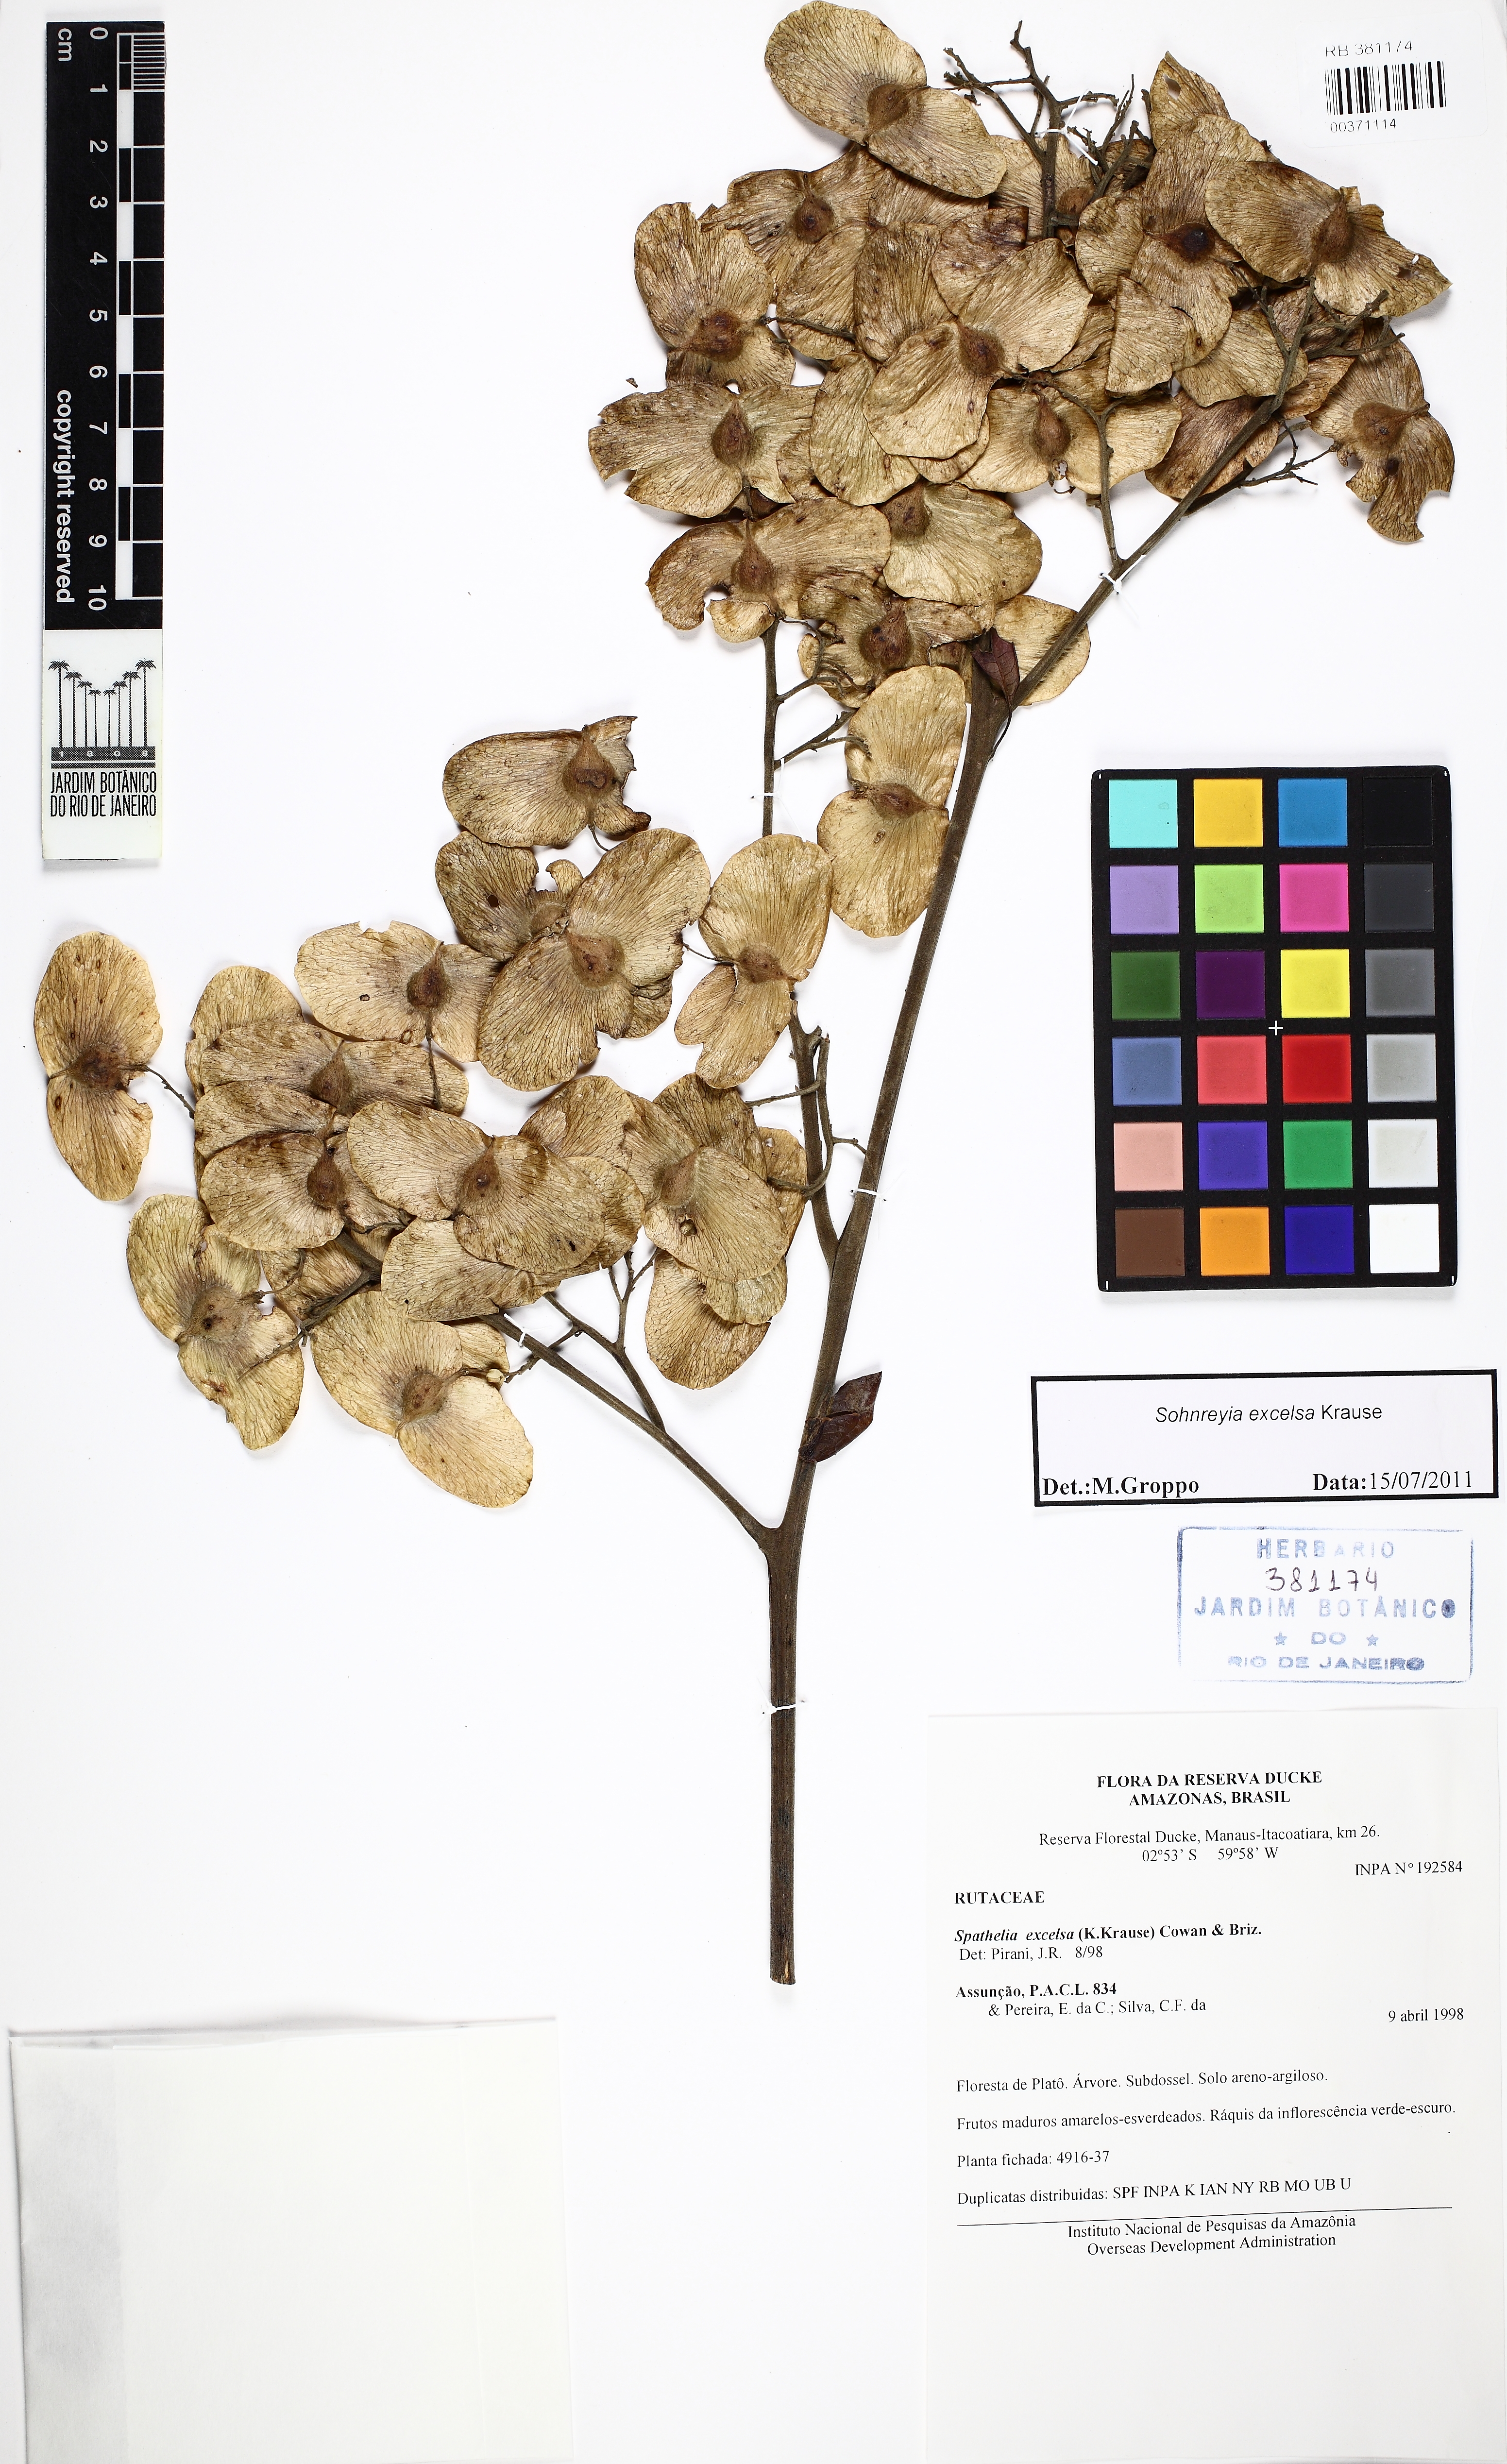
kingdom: Plantae
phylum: Tracheophyta
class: Magnoliopsida
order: Sapindales
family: Rutaceae
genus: Sohnreyia
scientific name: Sohnreyia excelsa
